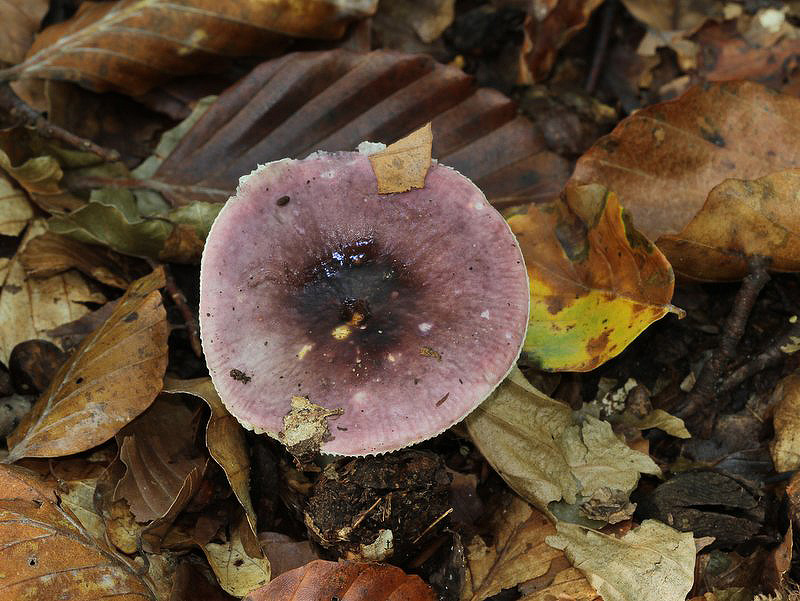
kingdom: Fungi
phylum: Basidiomycota
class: Agaricomycetes
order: Russulales
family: Russulaceae
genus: Russula
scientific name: Russula fragilis
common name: Fragile brittlegill
